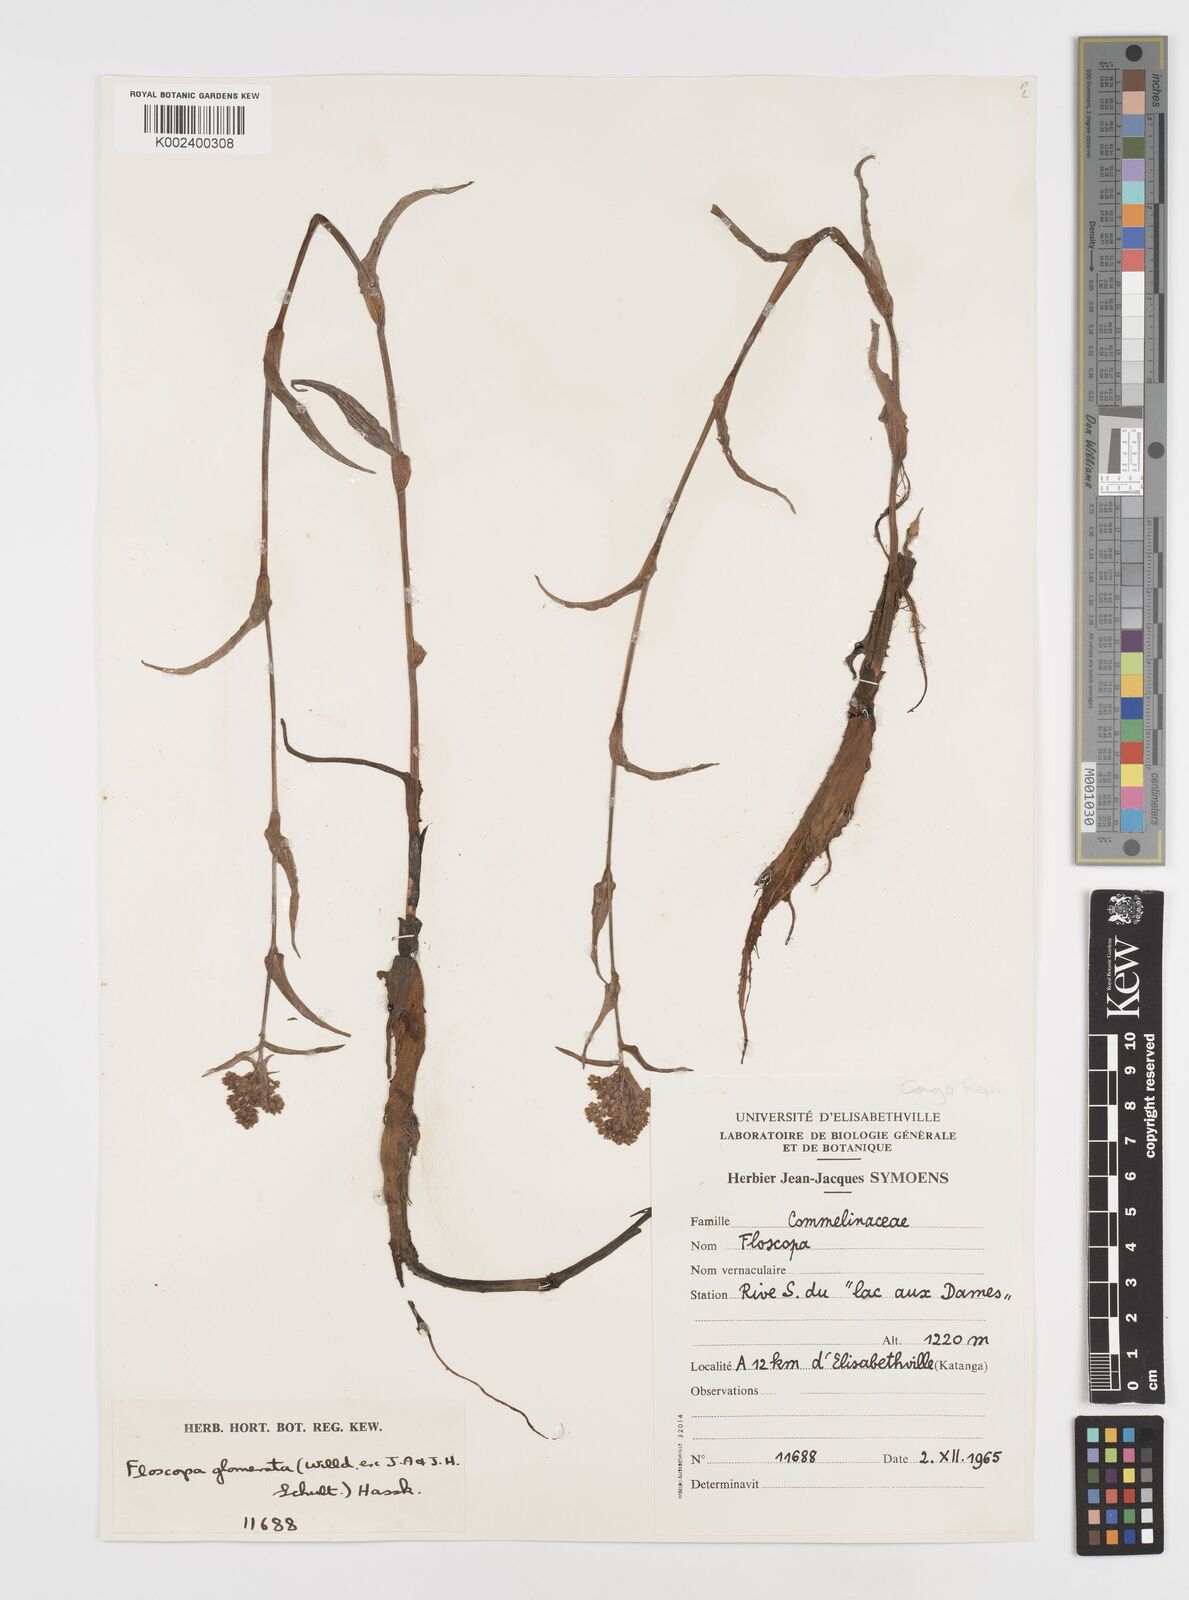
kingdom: Plantae
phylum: Tracheophyta
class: Liliopsida
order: Commelinales
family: Commelinaceae
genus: Floscopa
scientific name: Floscopa glomerata
